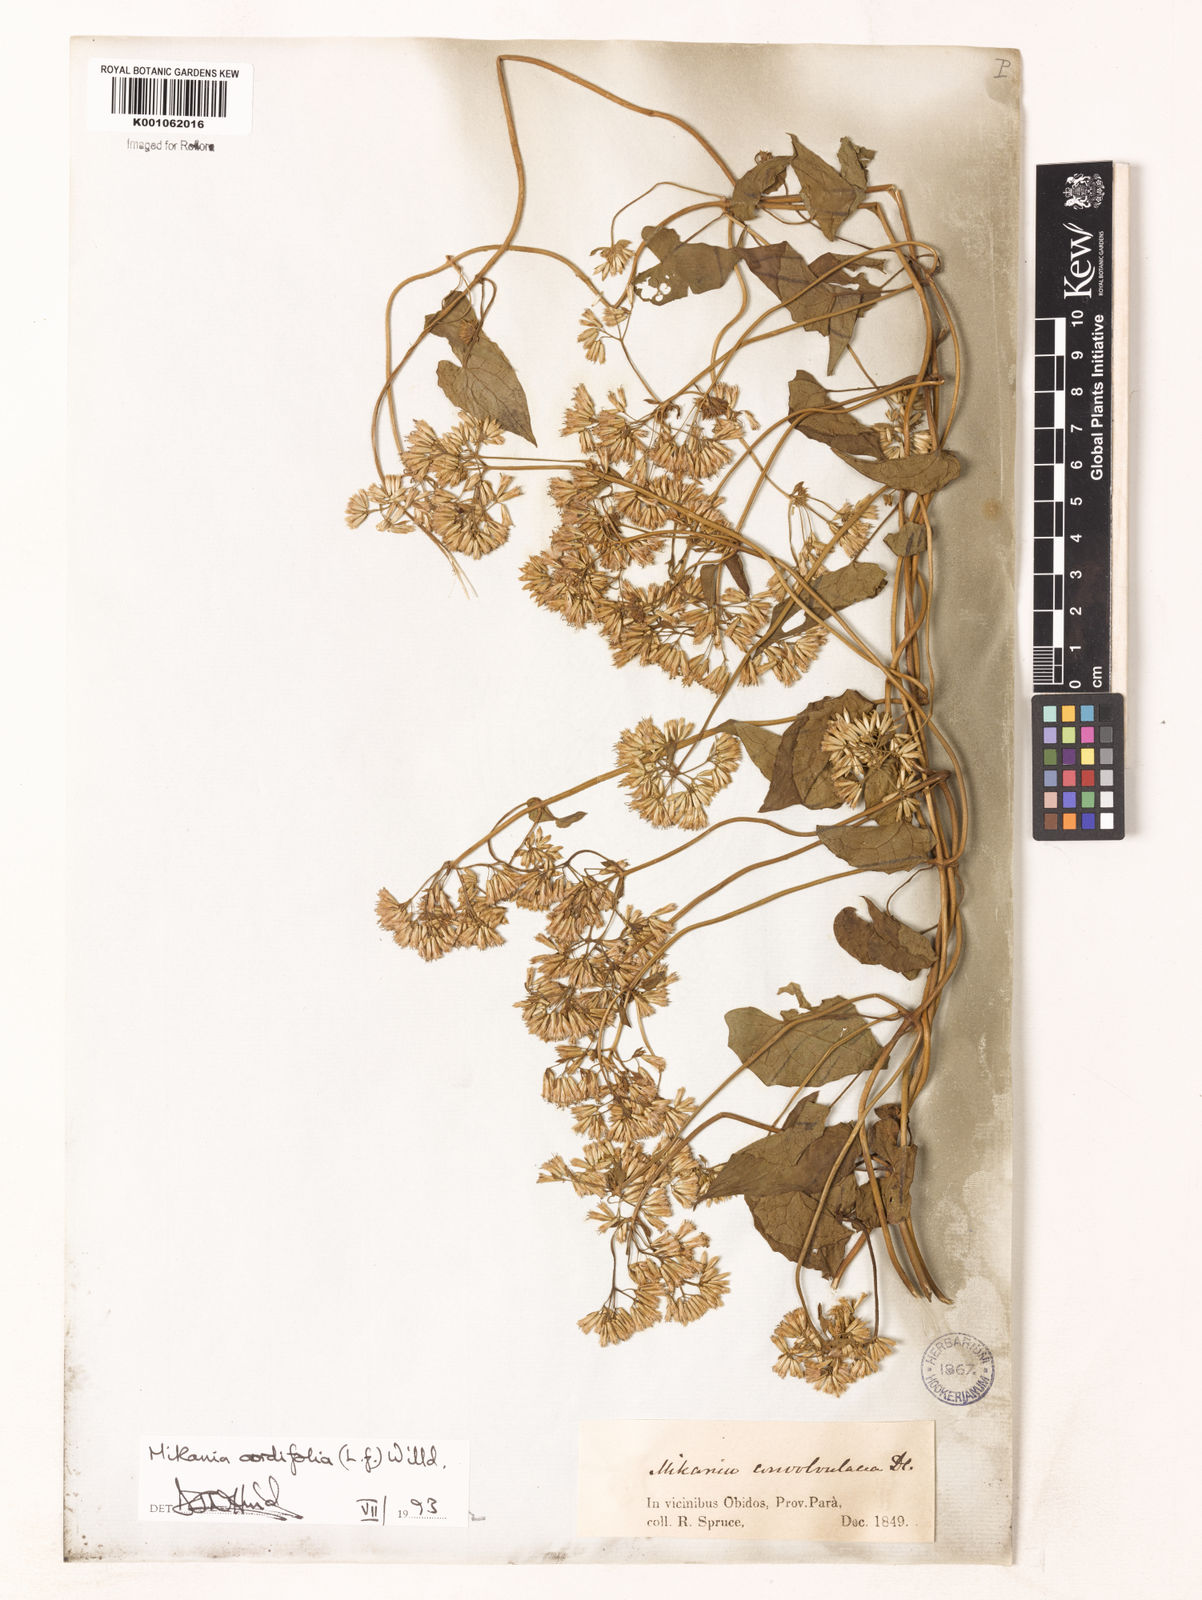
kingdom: Plantae
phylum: Tracheophyta
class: Magnoliopsida
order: Asterales
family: Asteraceae
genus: Mikania
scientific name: Mikania cordifolia
